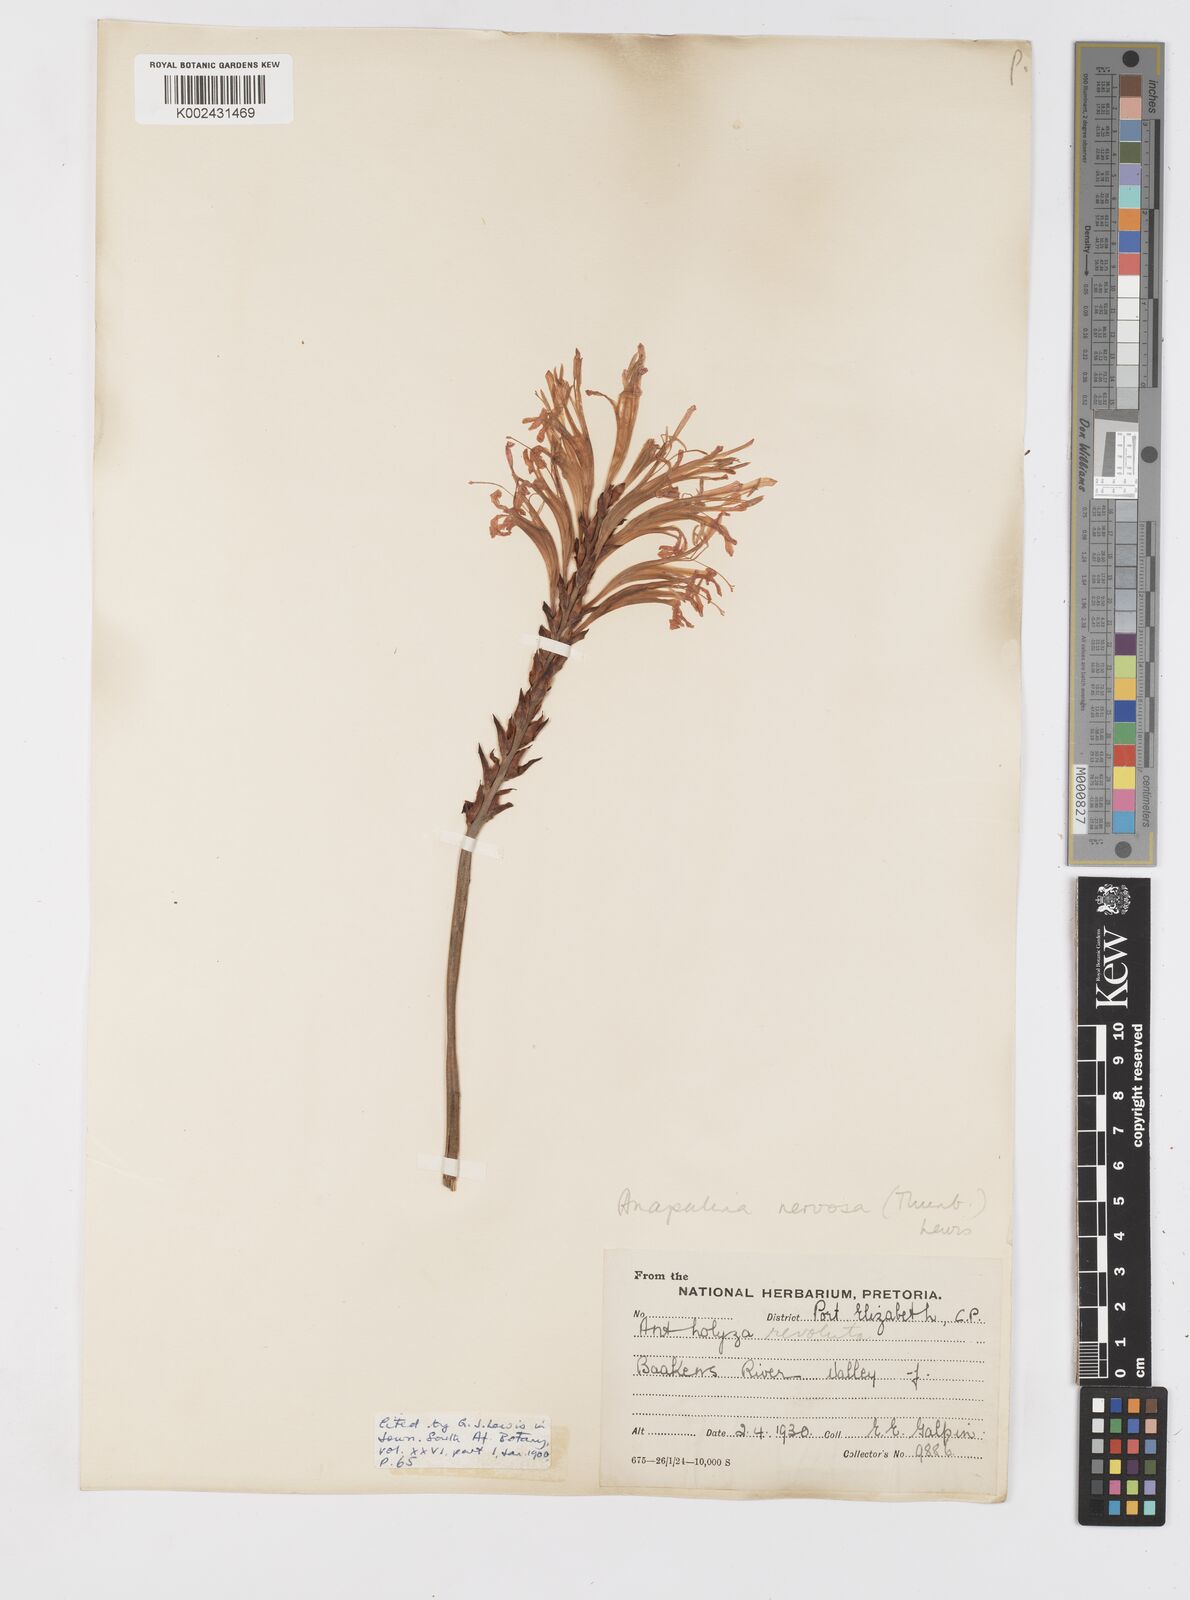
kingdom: Plantae
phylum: Tracheophyta
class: Liliopsida
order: Asparagales
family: Iridaceae
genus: Tritoniopsis
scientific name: Tritoniopsis nervosa
